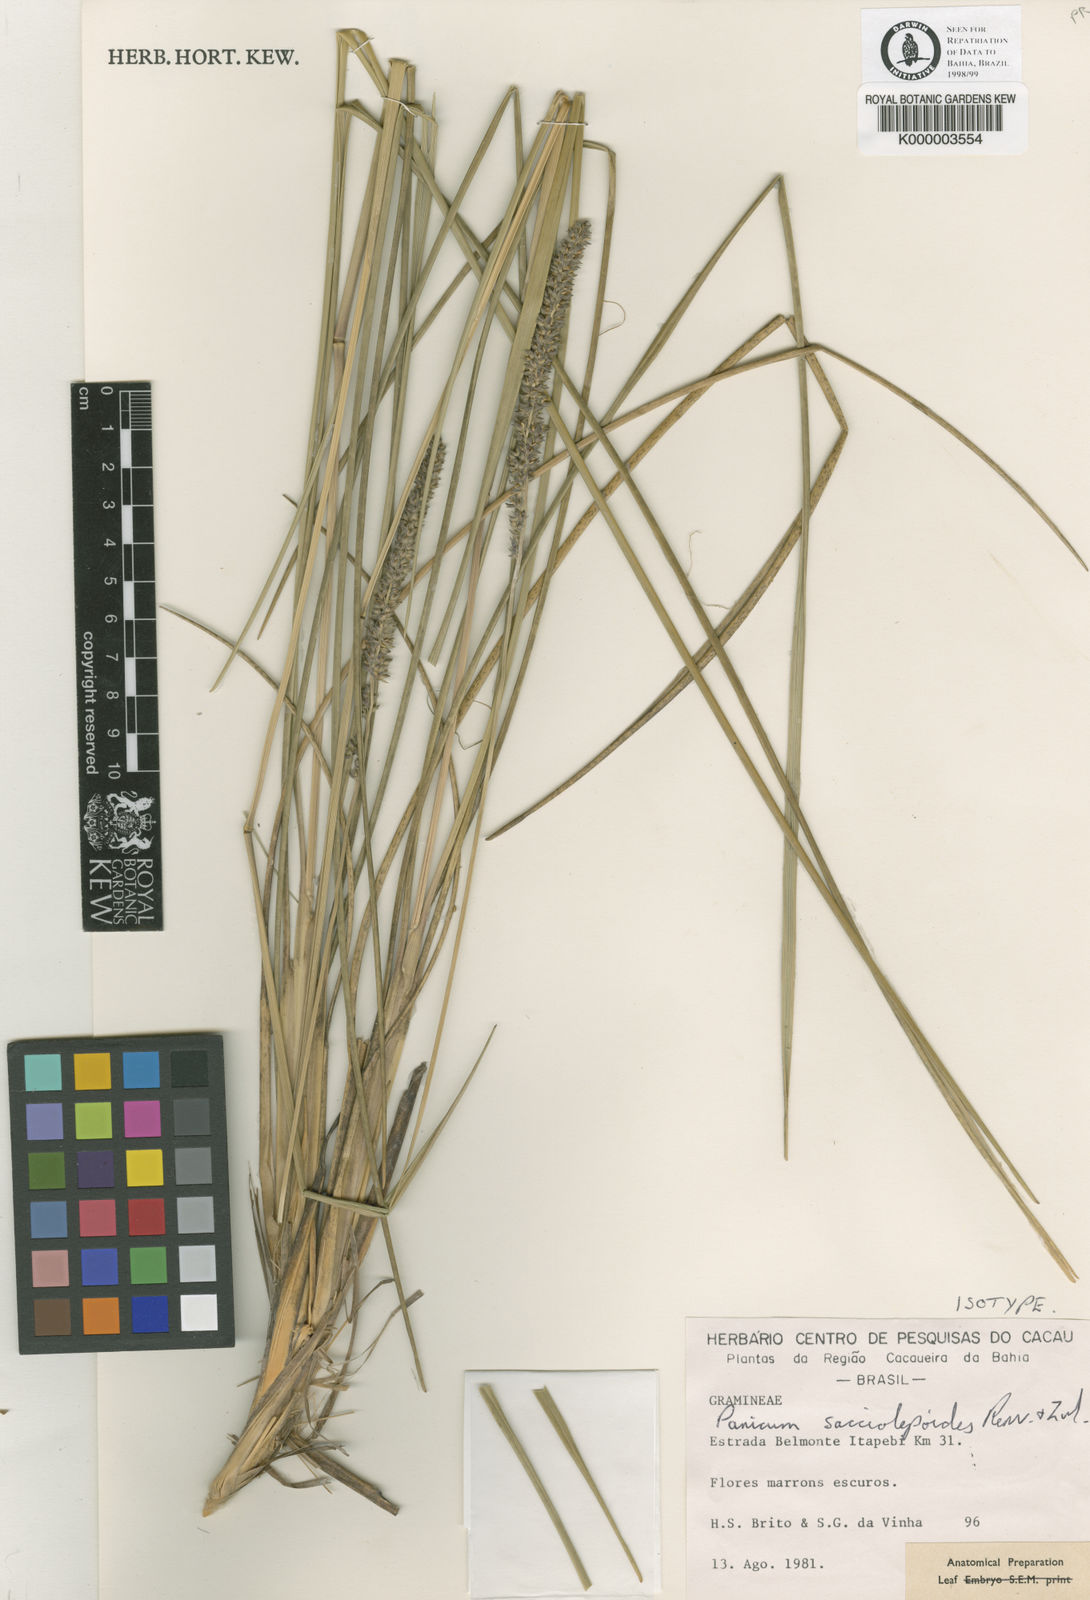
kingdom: Plantae
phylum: Tracheophyta
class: Liliopsida
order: Poales
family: Poaceae
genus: Renvoizea
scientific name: Renvoizea sacciolepoides
